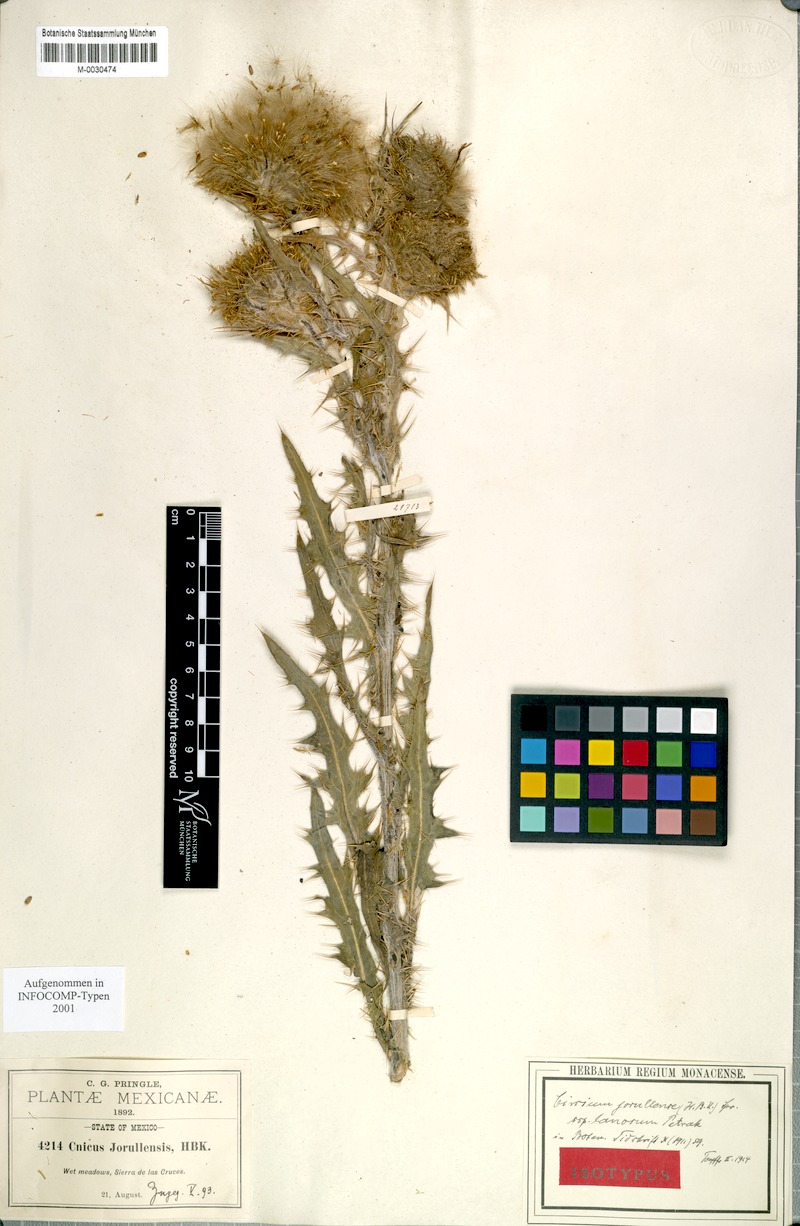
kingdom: Plantae
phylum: Tracheophyta
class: Magnoliopsida
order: Asterales
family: Asteraceae
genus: Cirsium
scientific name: Cirsium jorullense
